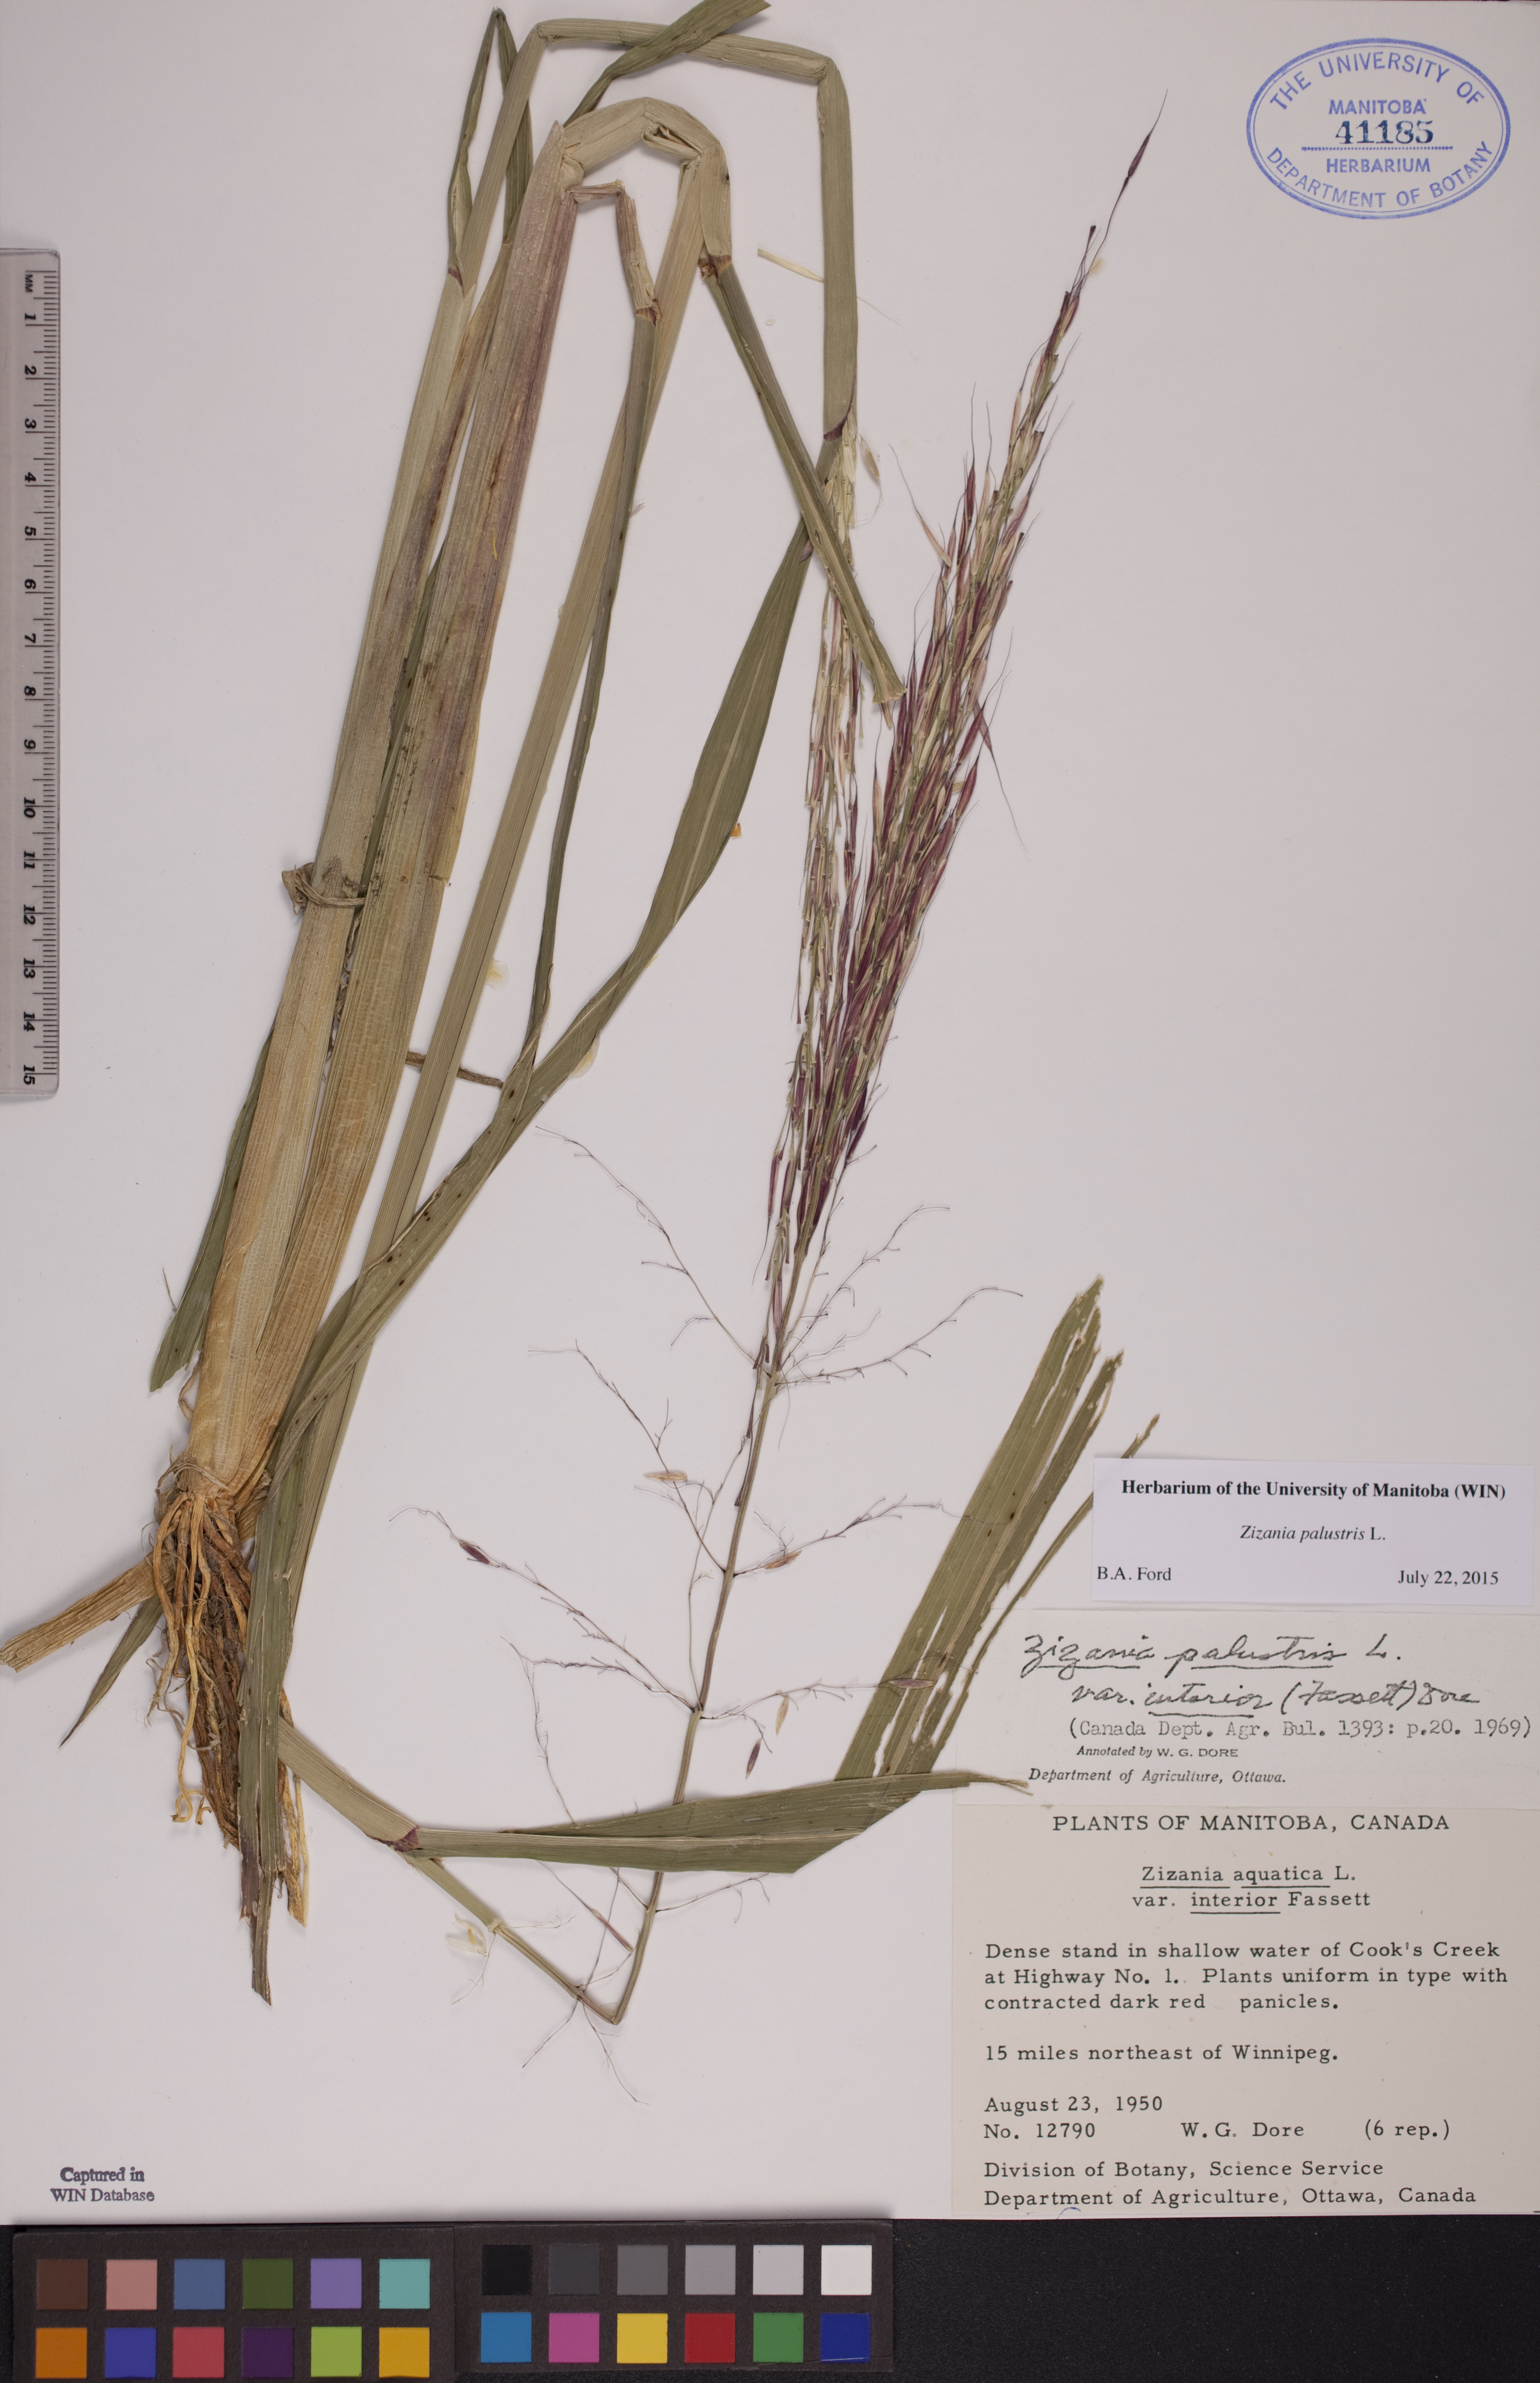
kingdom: Plantae
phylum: Tracheophyta
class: Liliopsida
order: Poales
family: Poaceae
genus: Zizania
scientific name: Zizania palustris
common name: Northern wild rice
